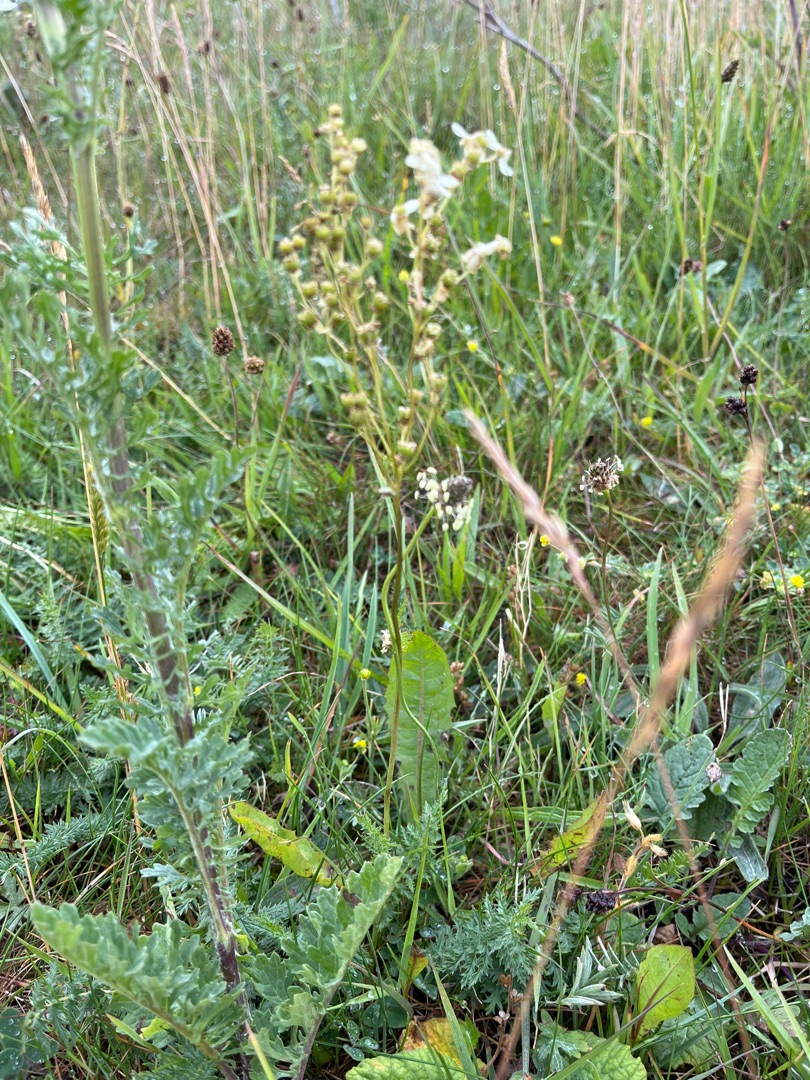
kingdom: Plantae
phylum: Tracheophyta
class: Magnoliopsida
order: Rosales
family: Rosaceae
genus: Filipendula
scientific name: Filipendula vulgaris
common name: Knoldet mjødurt
